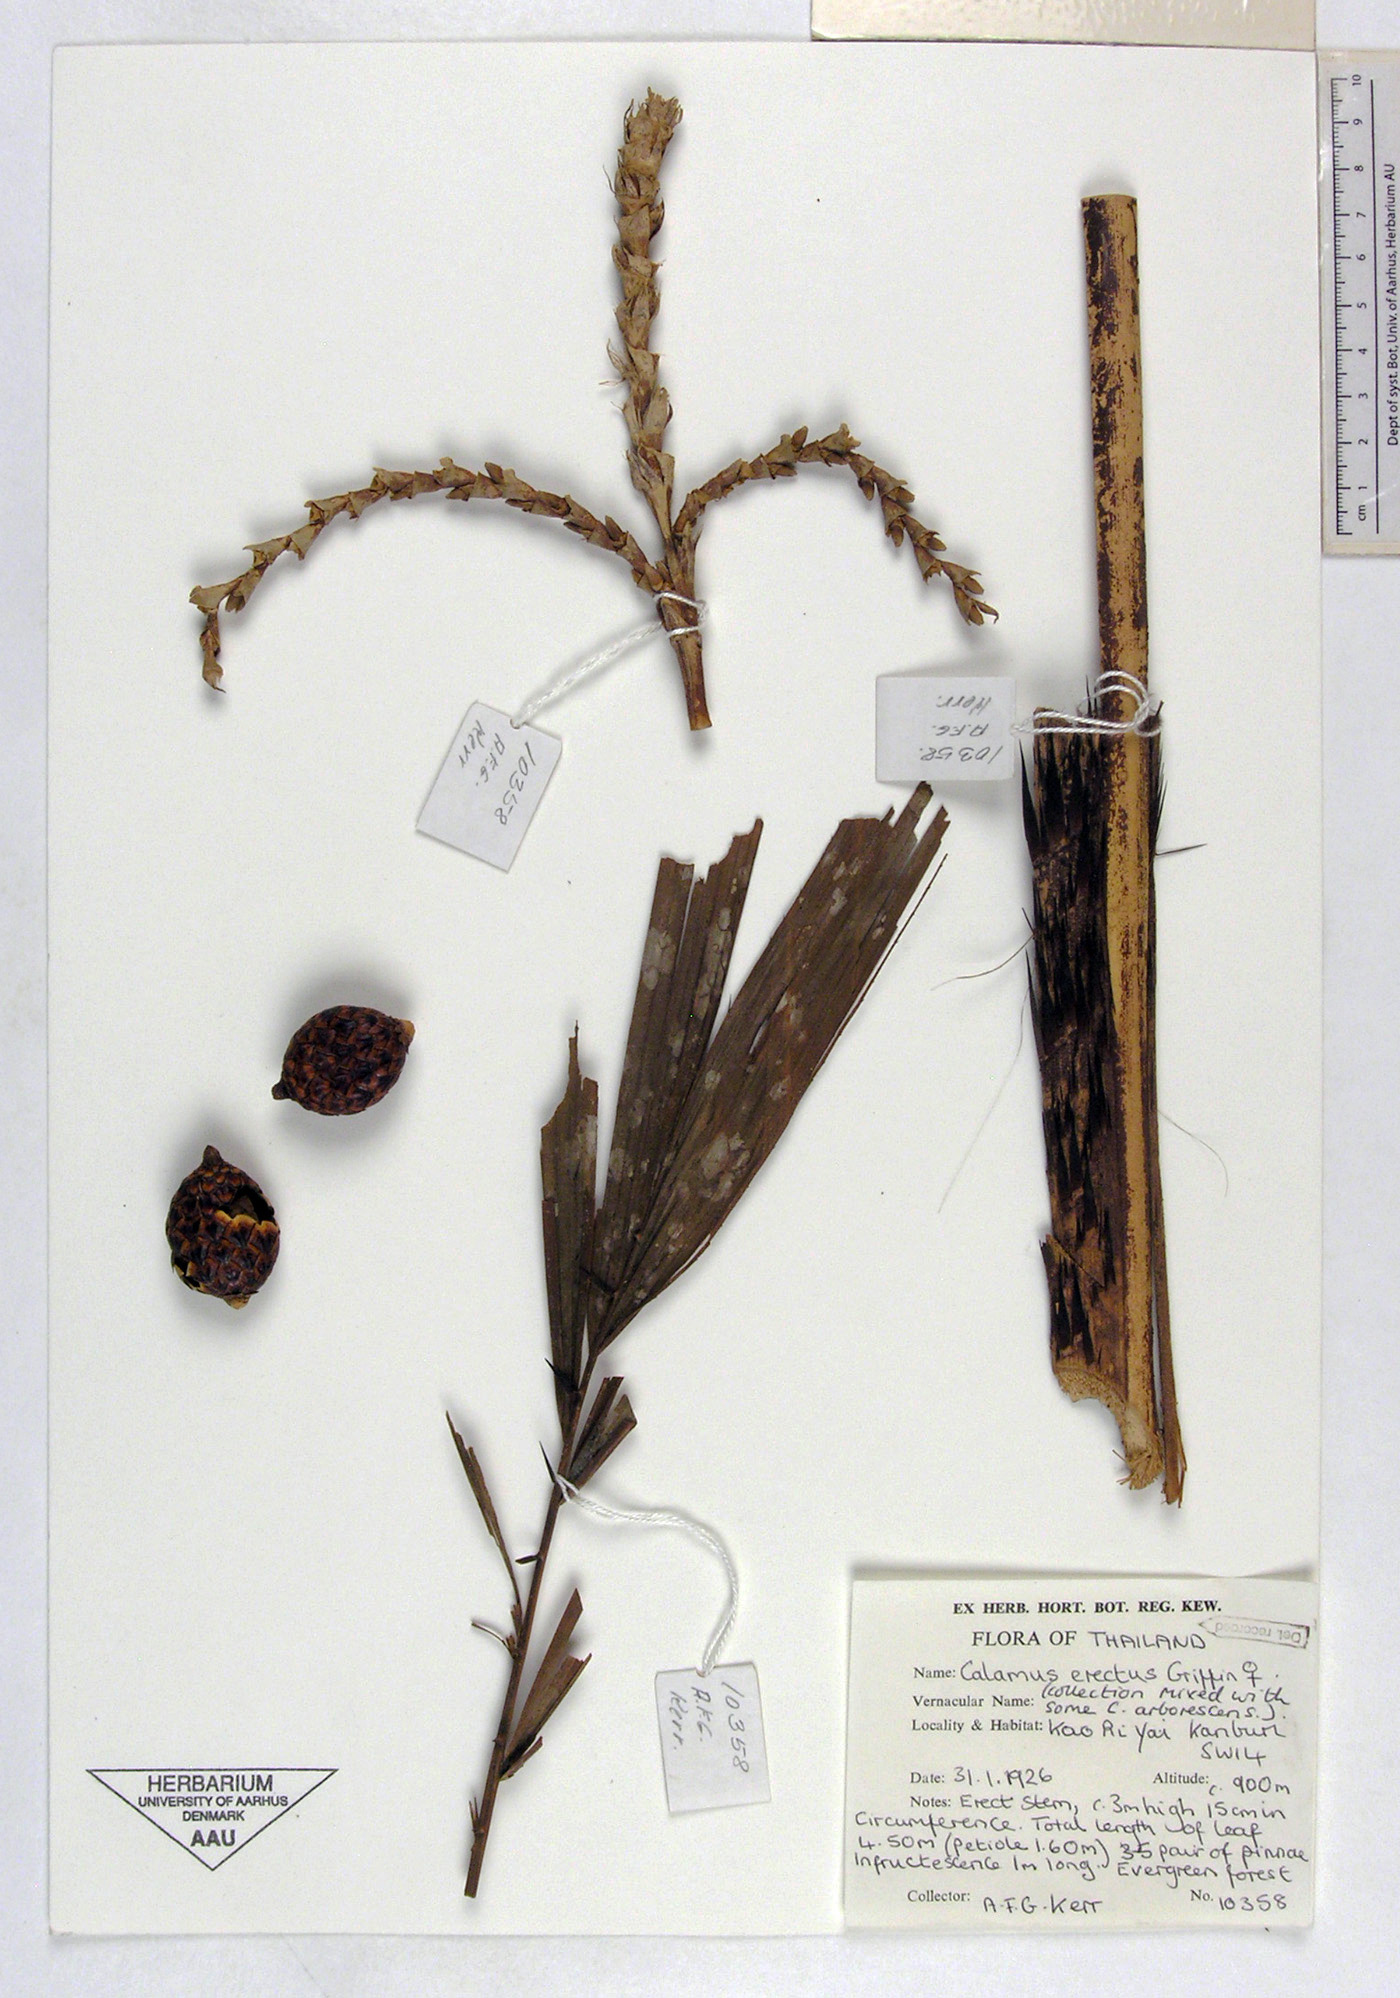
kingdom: Plantae
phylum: Tracheophyta
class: Liliopsida
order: Arecales
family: Arecaceae
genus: Calamus
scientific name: Calamus erectus
